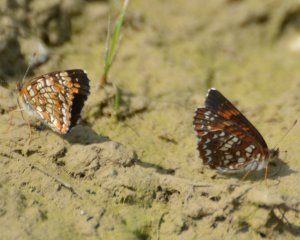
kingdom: Animalia
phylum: Arthropoda
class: Insecta
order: Lepidoptera
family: Nymphalidae
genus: Chlosyne
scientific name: Chlosyne harrisii
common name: Harris's Checkerspot
